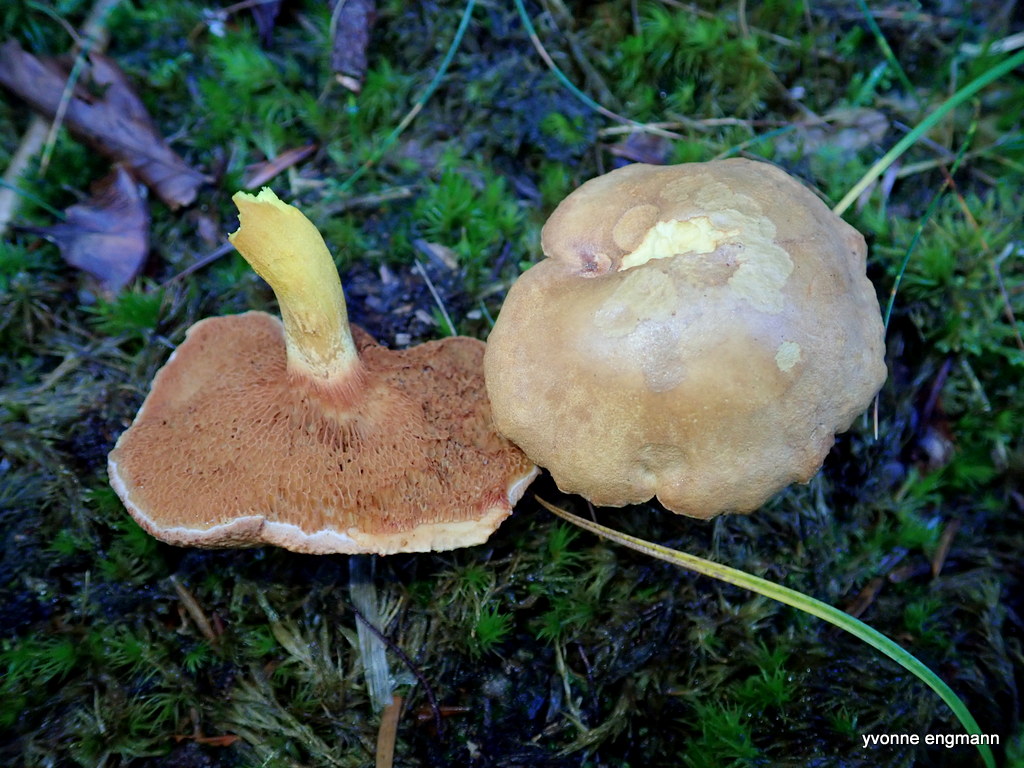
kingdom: Fungi
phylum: Basidiomycota
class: Agaricomycetes
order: Boletales
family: Boletaceae
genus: Chalciporus
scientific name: Chalciporus piperatus
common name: peberrørhat
